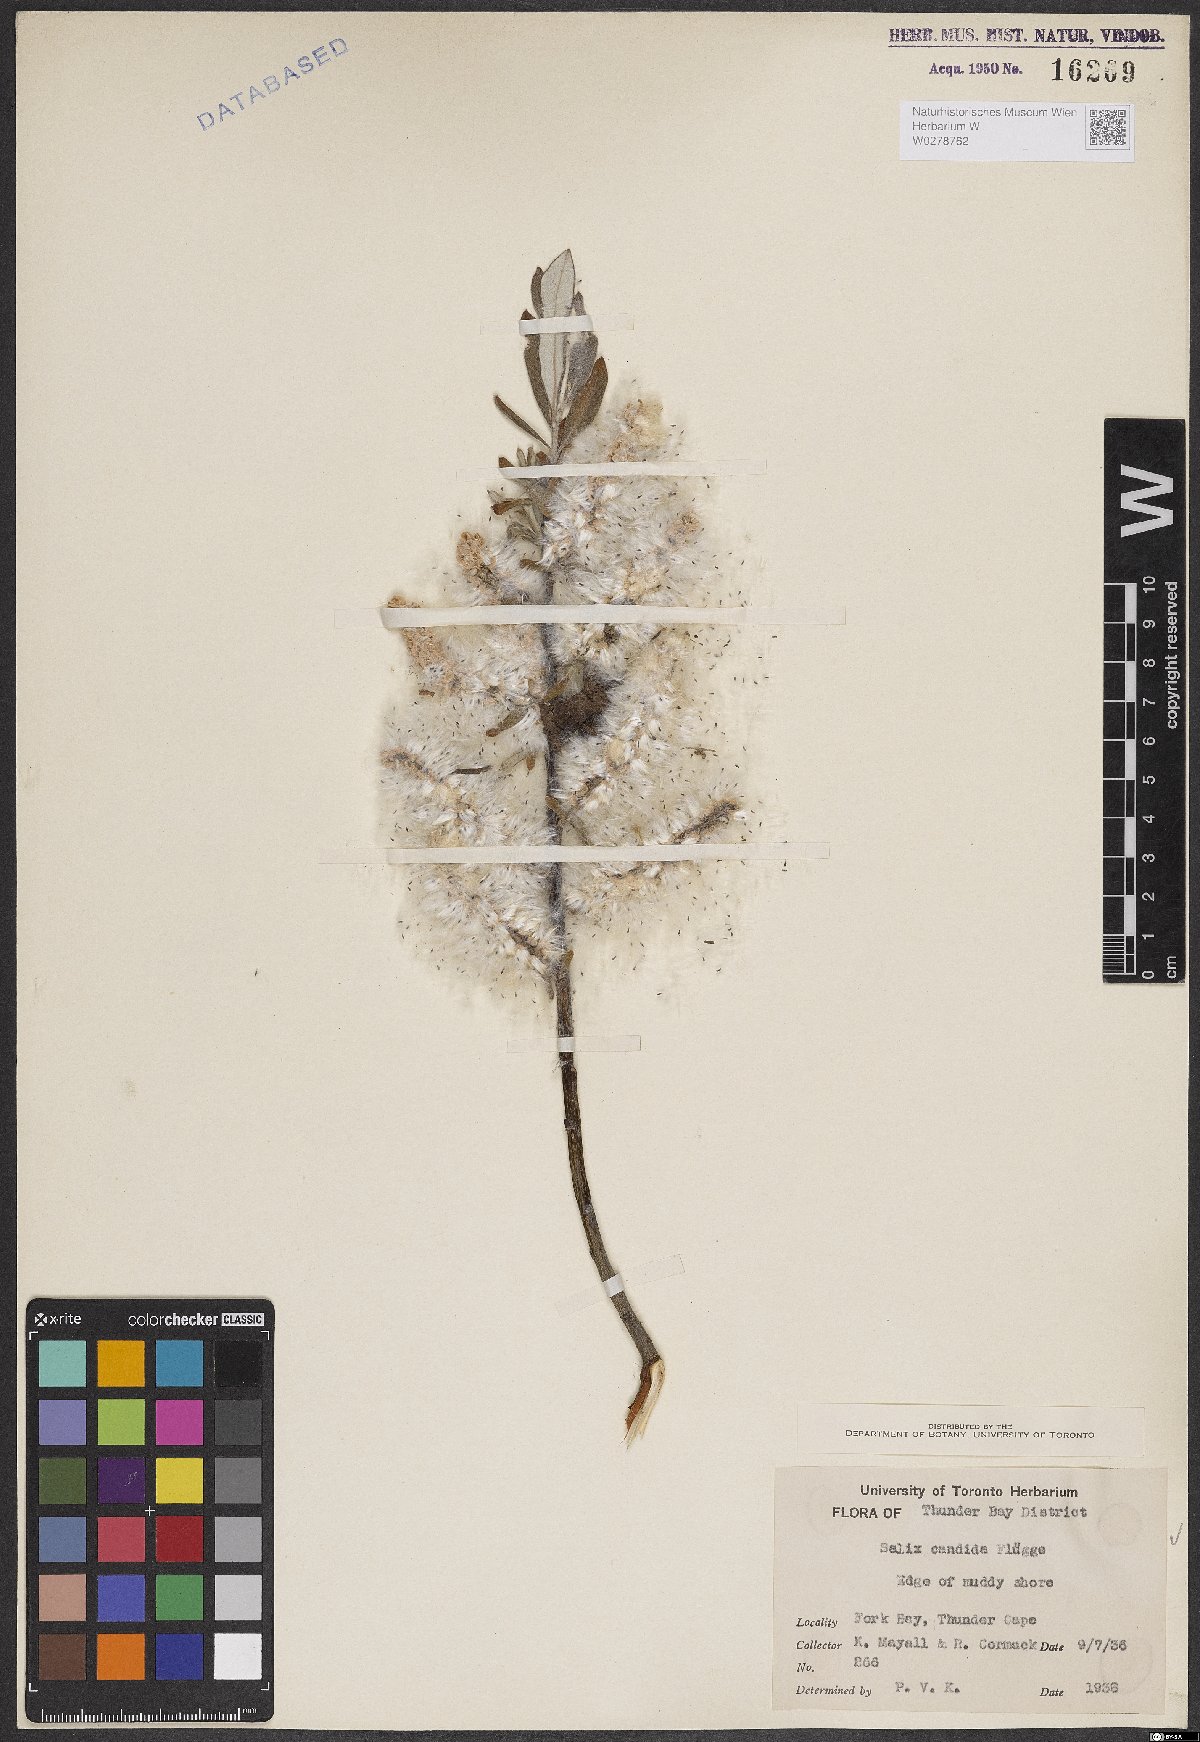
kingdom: Plantae
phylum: Tracheophyta
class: Magnoliopsida
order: Malpighiales
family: Salicaceae
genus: Salix
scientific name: Salix candida
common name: Hoary willow
